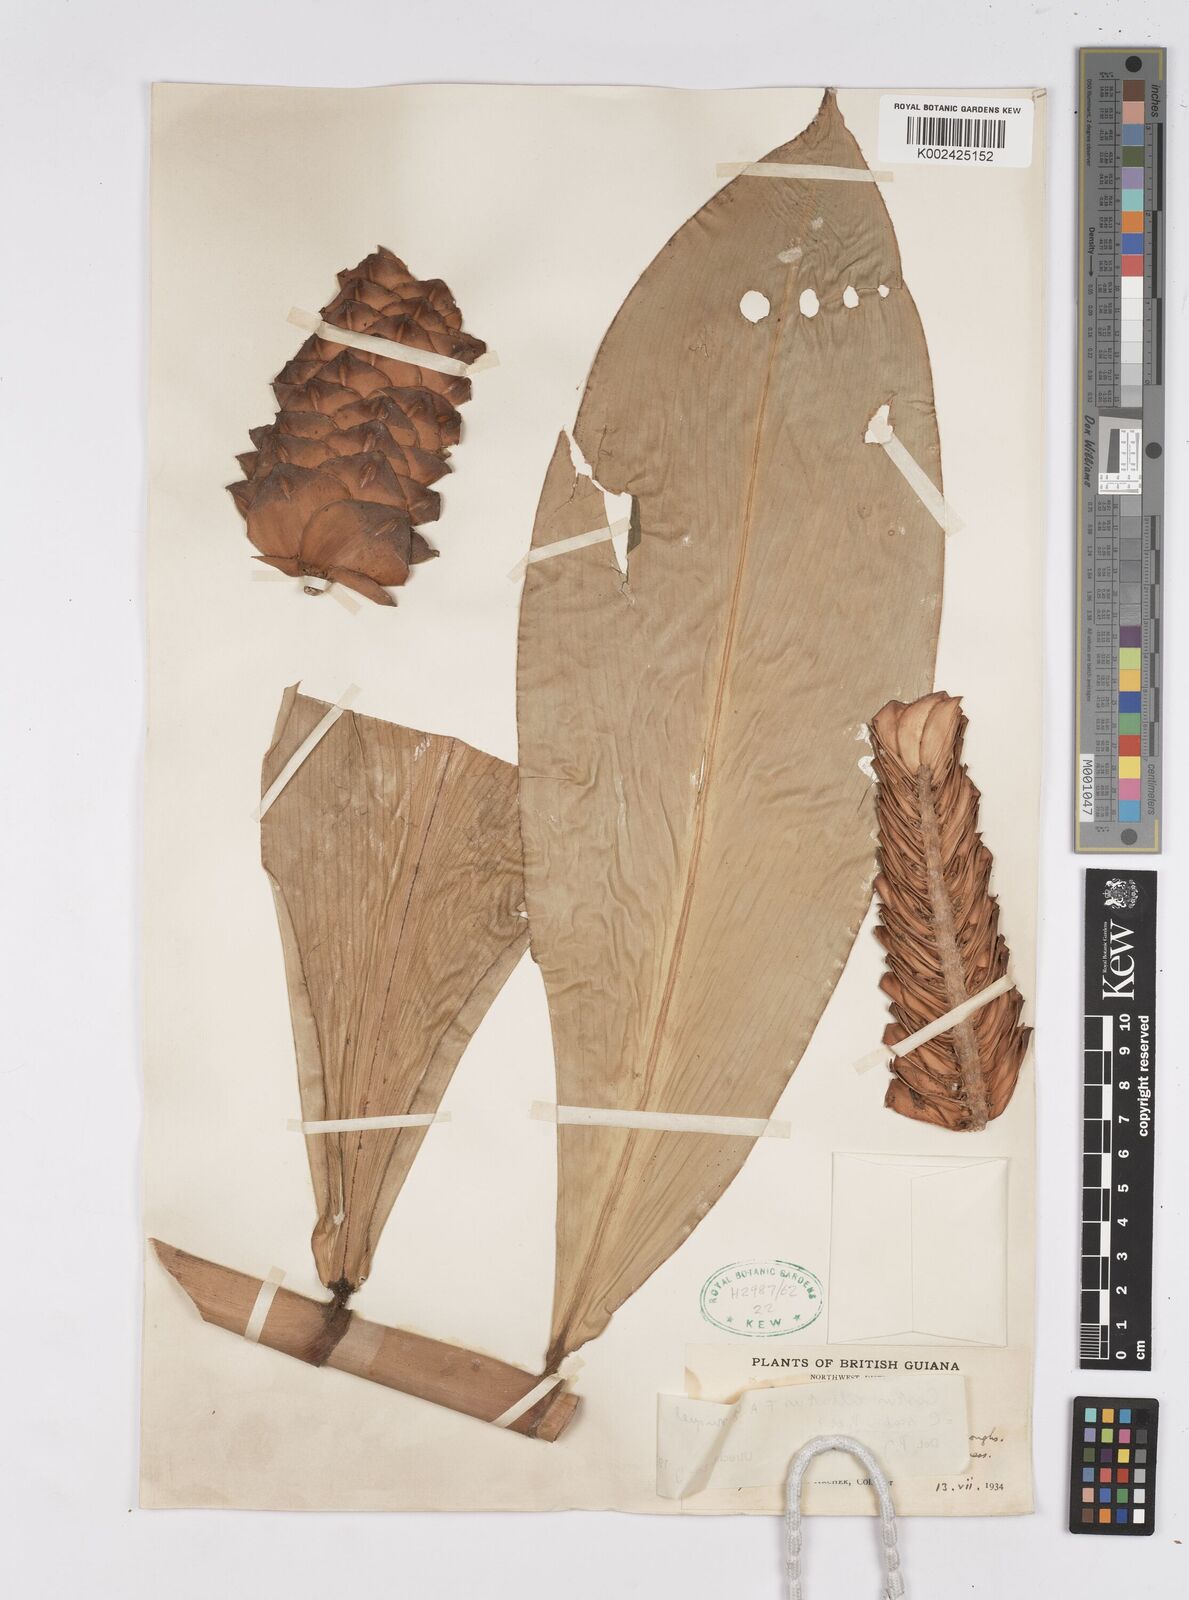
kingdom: Plantae
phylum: Tracheophyta
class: Liliopsida
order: Zingiberales
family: Costaceae
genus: Costus
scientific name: Costus scaber
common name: Spiral head ginger
